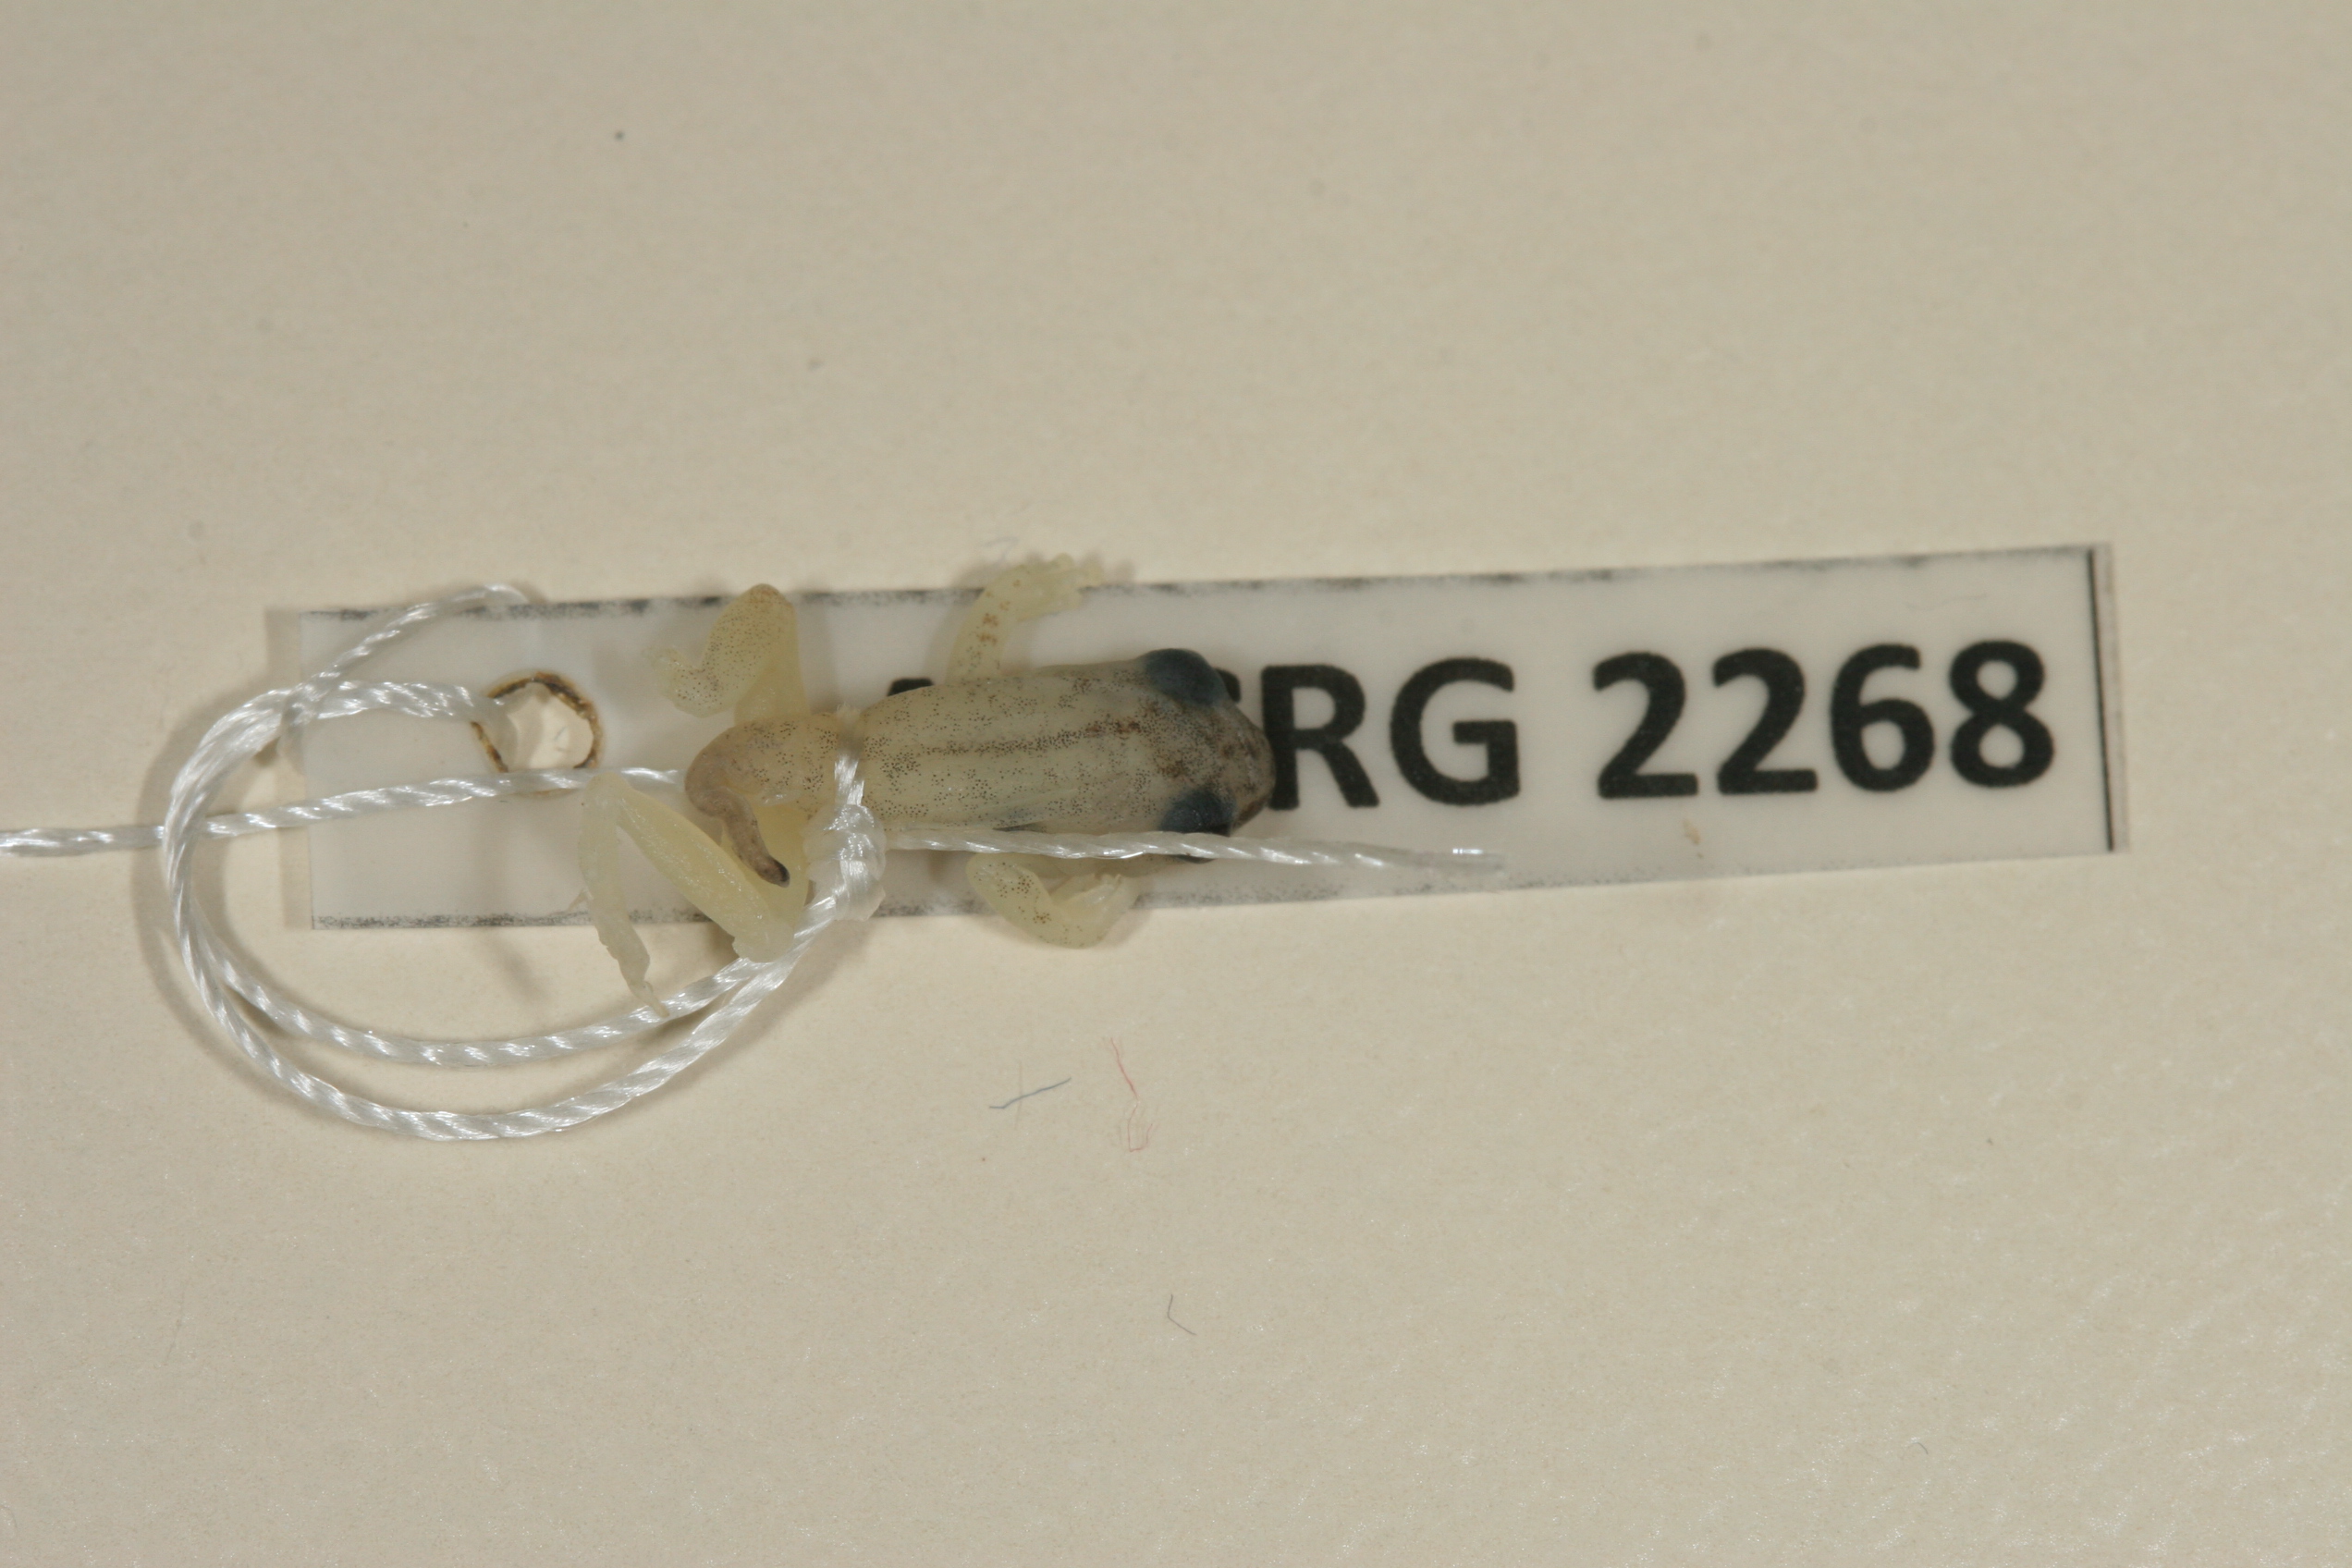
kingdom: Animalia
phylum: Chordata
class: Amphibia
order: Anura
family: Hyperoliidae
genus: Hyperolius
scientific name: Hyperolius tuberilinguis
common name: Tinker reed frog
